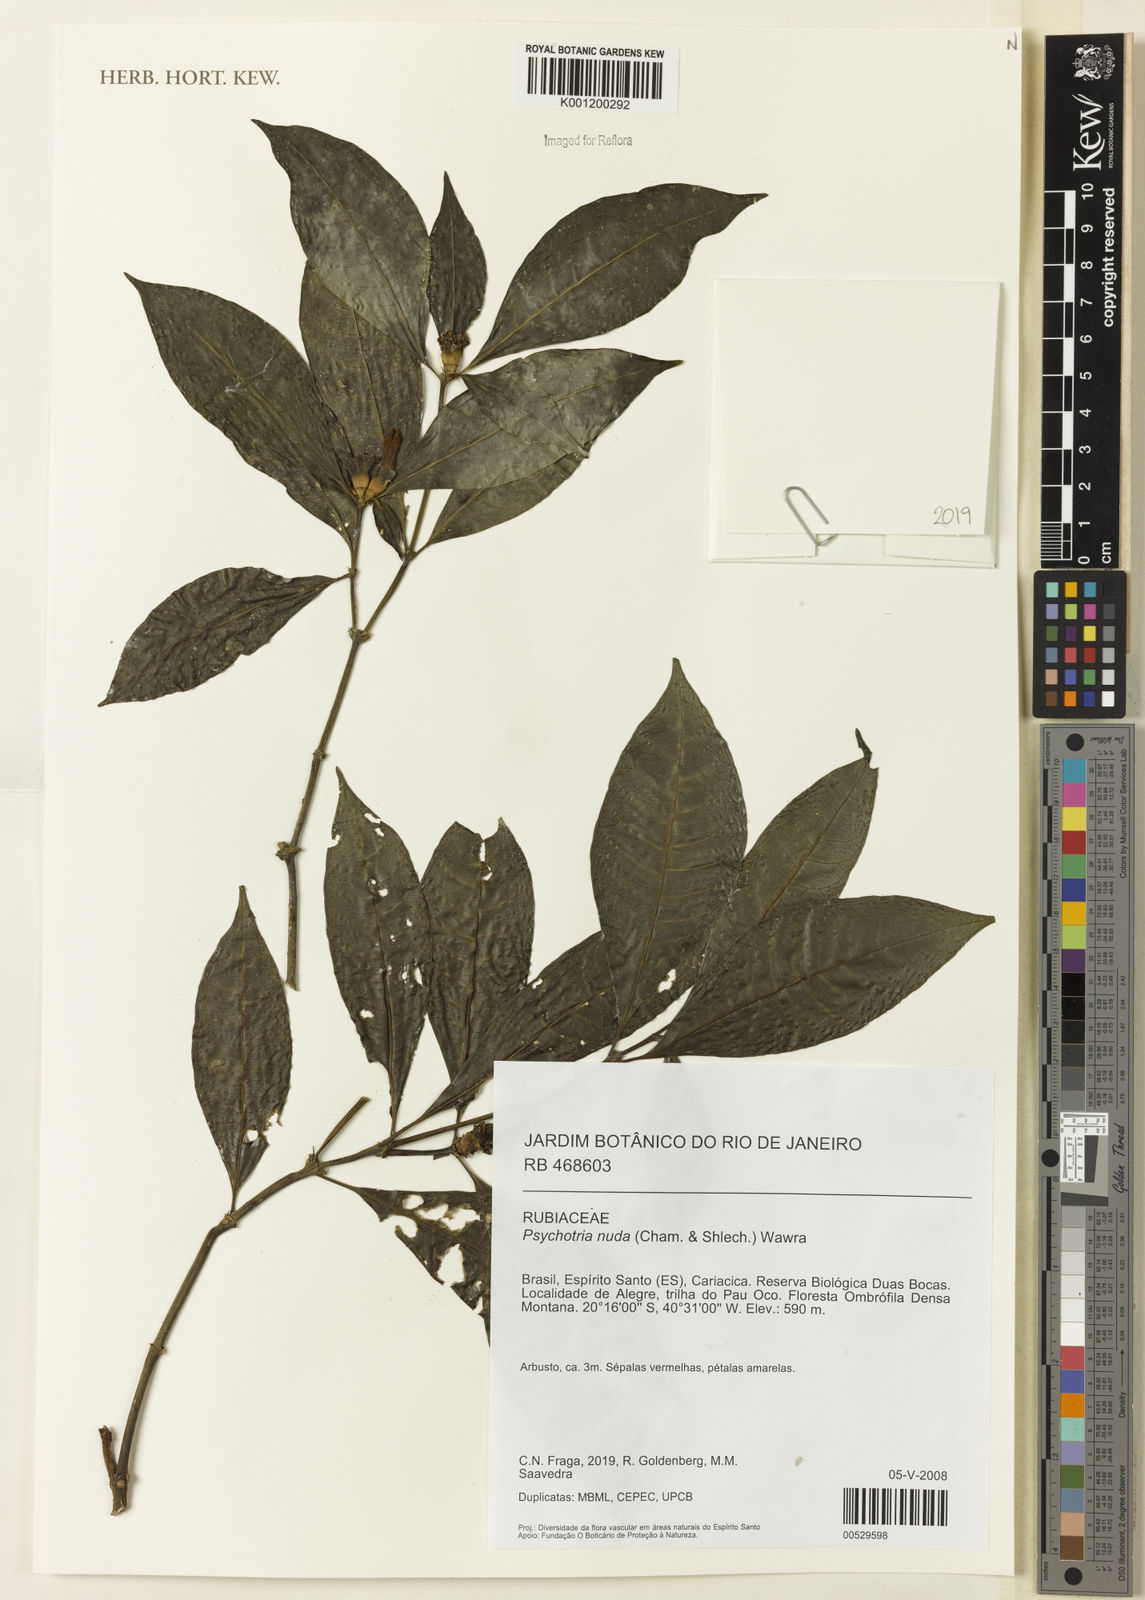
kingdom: Plantae
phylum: Tracheophyta
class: Magnoliopsida
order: Gentianales
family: Rubiaceae
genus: Psychotria
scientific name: Psychotria nuda
